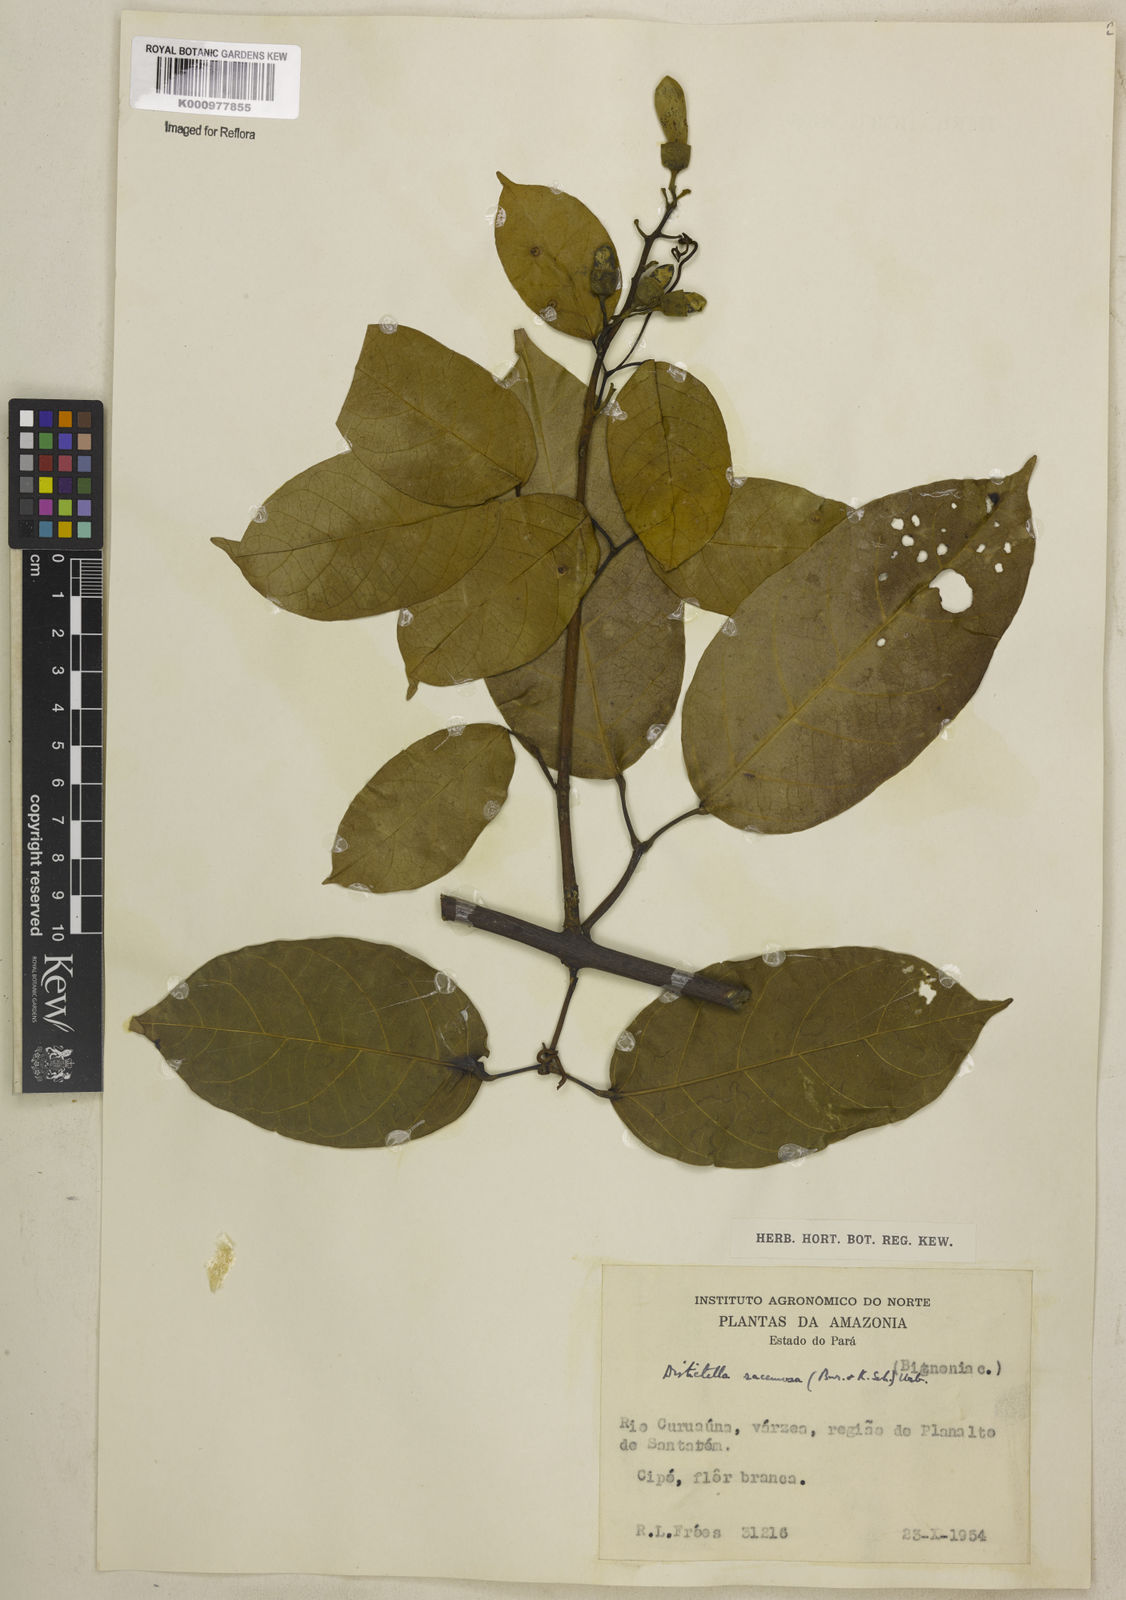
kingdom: Plantae
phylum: Tracheophyta
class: Magnoliopsida
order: Lamiales
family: Bignoniaceae
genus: Amphilophium
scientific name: Amphilophium racemosum
